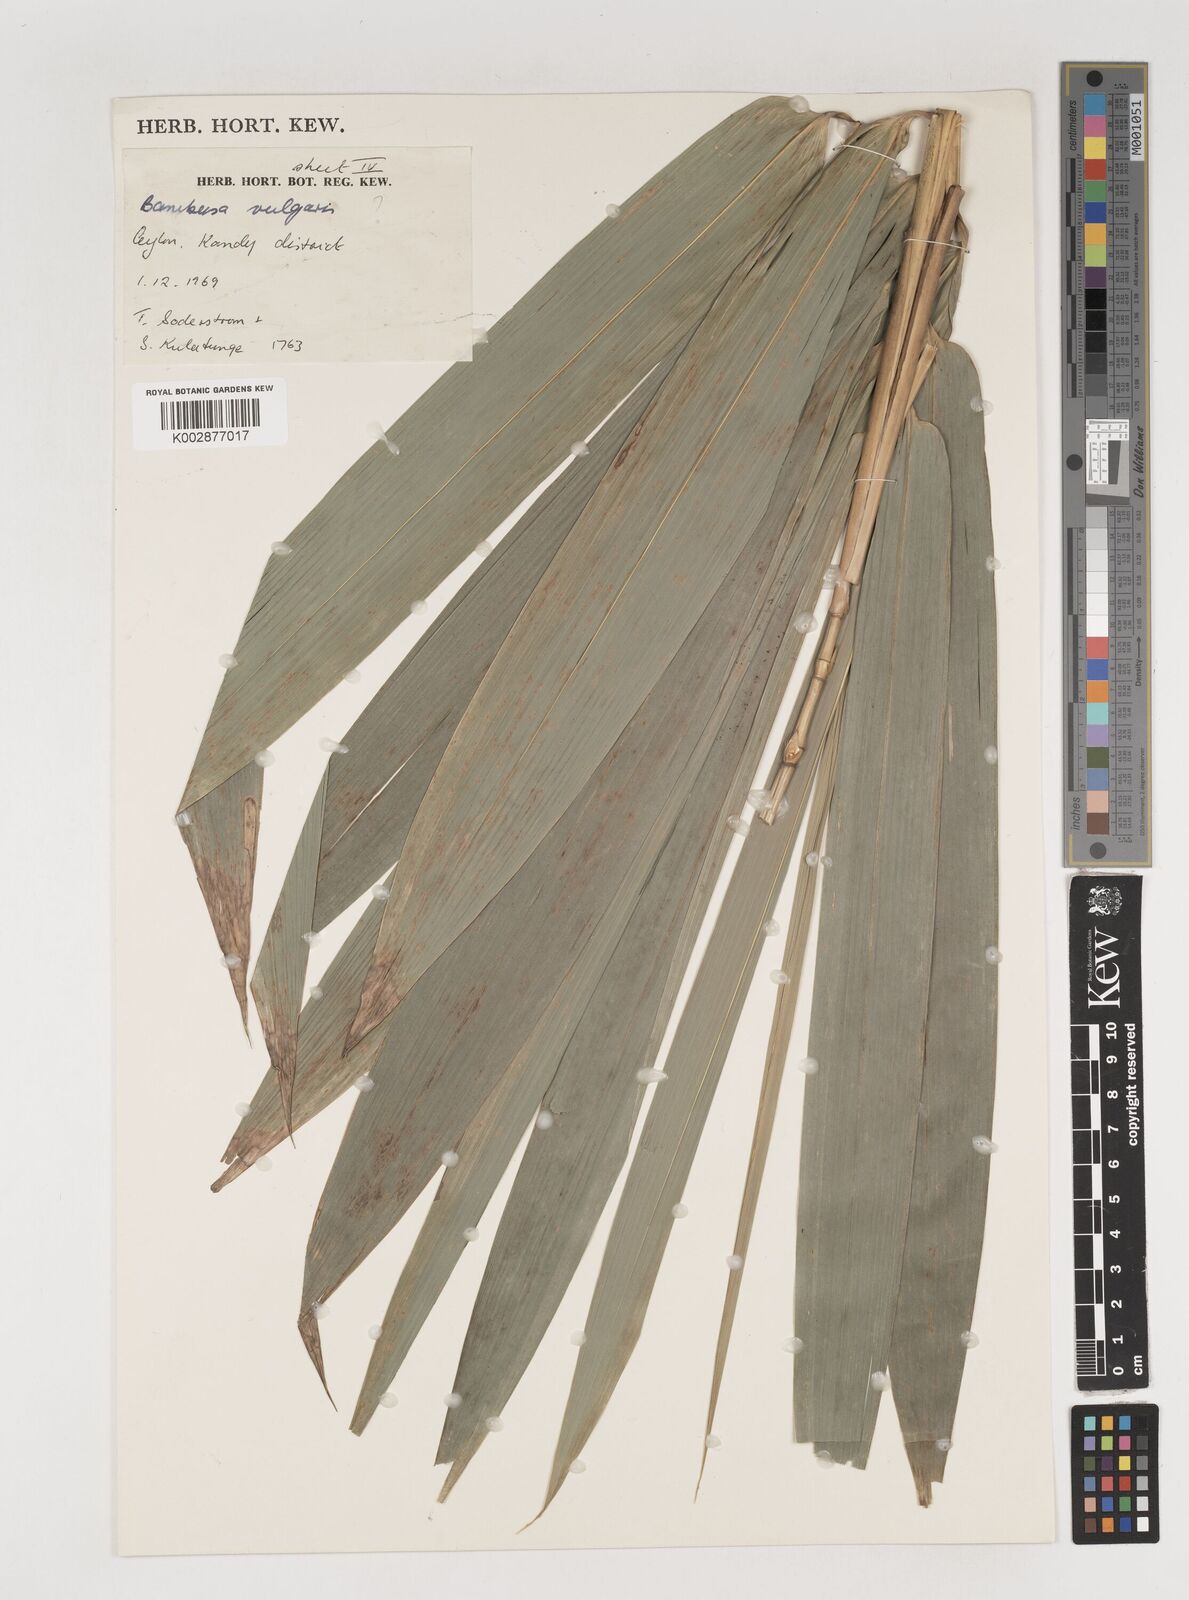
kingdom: Plantae
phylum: Tracheophyta
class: Liliopsida
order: Poales
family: Poaceae
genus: Bambusa
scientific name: Bambusa vulgaris
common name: Common bamboo
